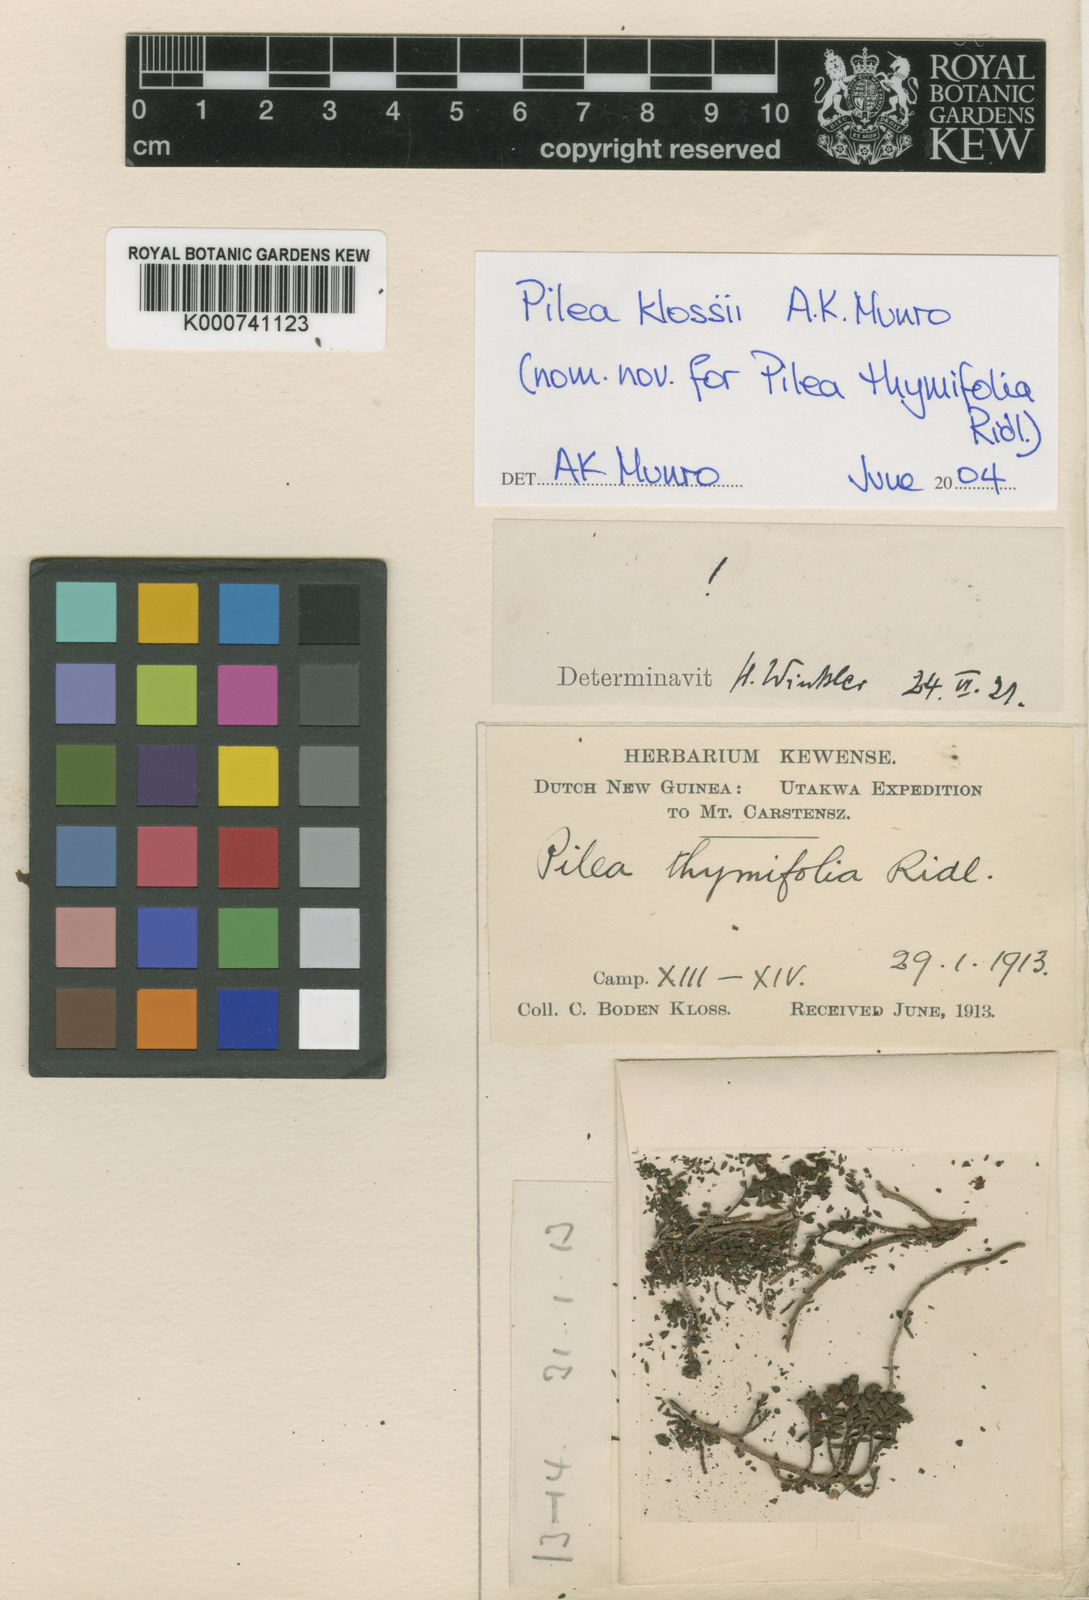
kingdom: Plantae
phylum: Tracheophyta
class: Magnoliopsida
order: Rosales
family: Urticaceae
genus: Pilea
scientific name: Pilea lapestris
